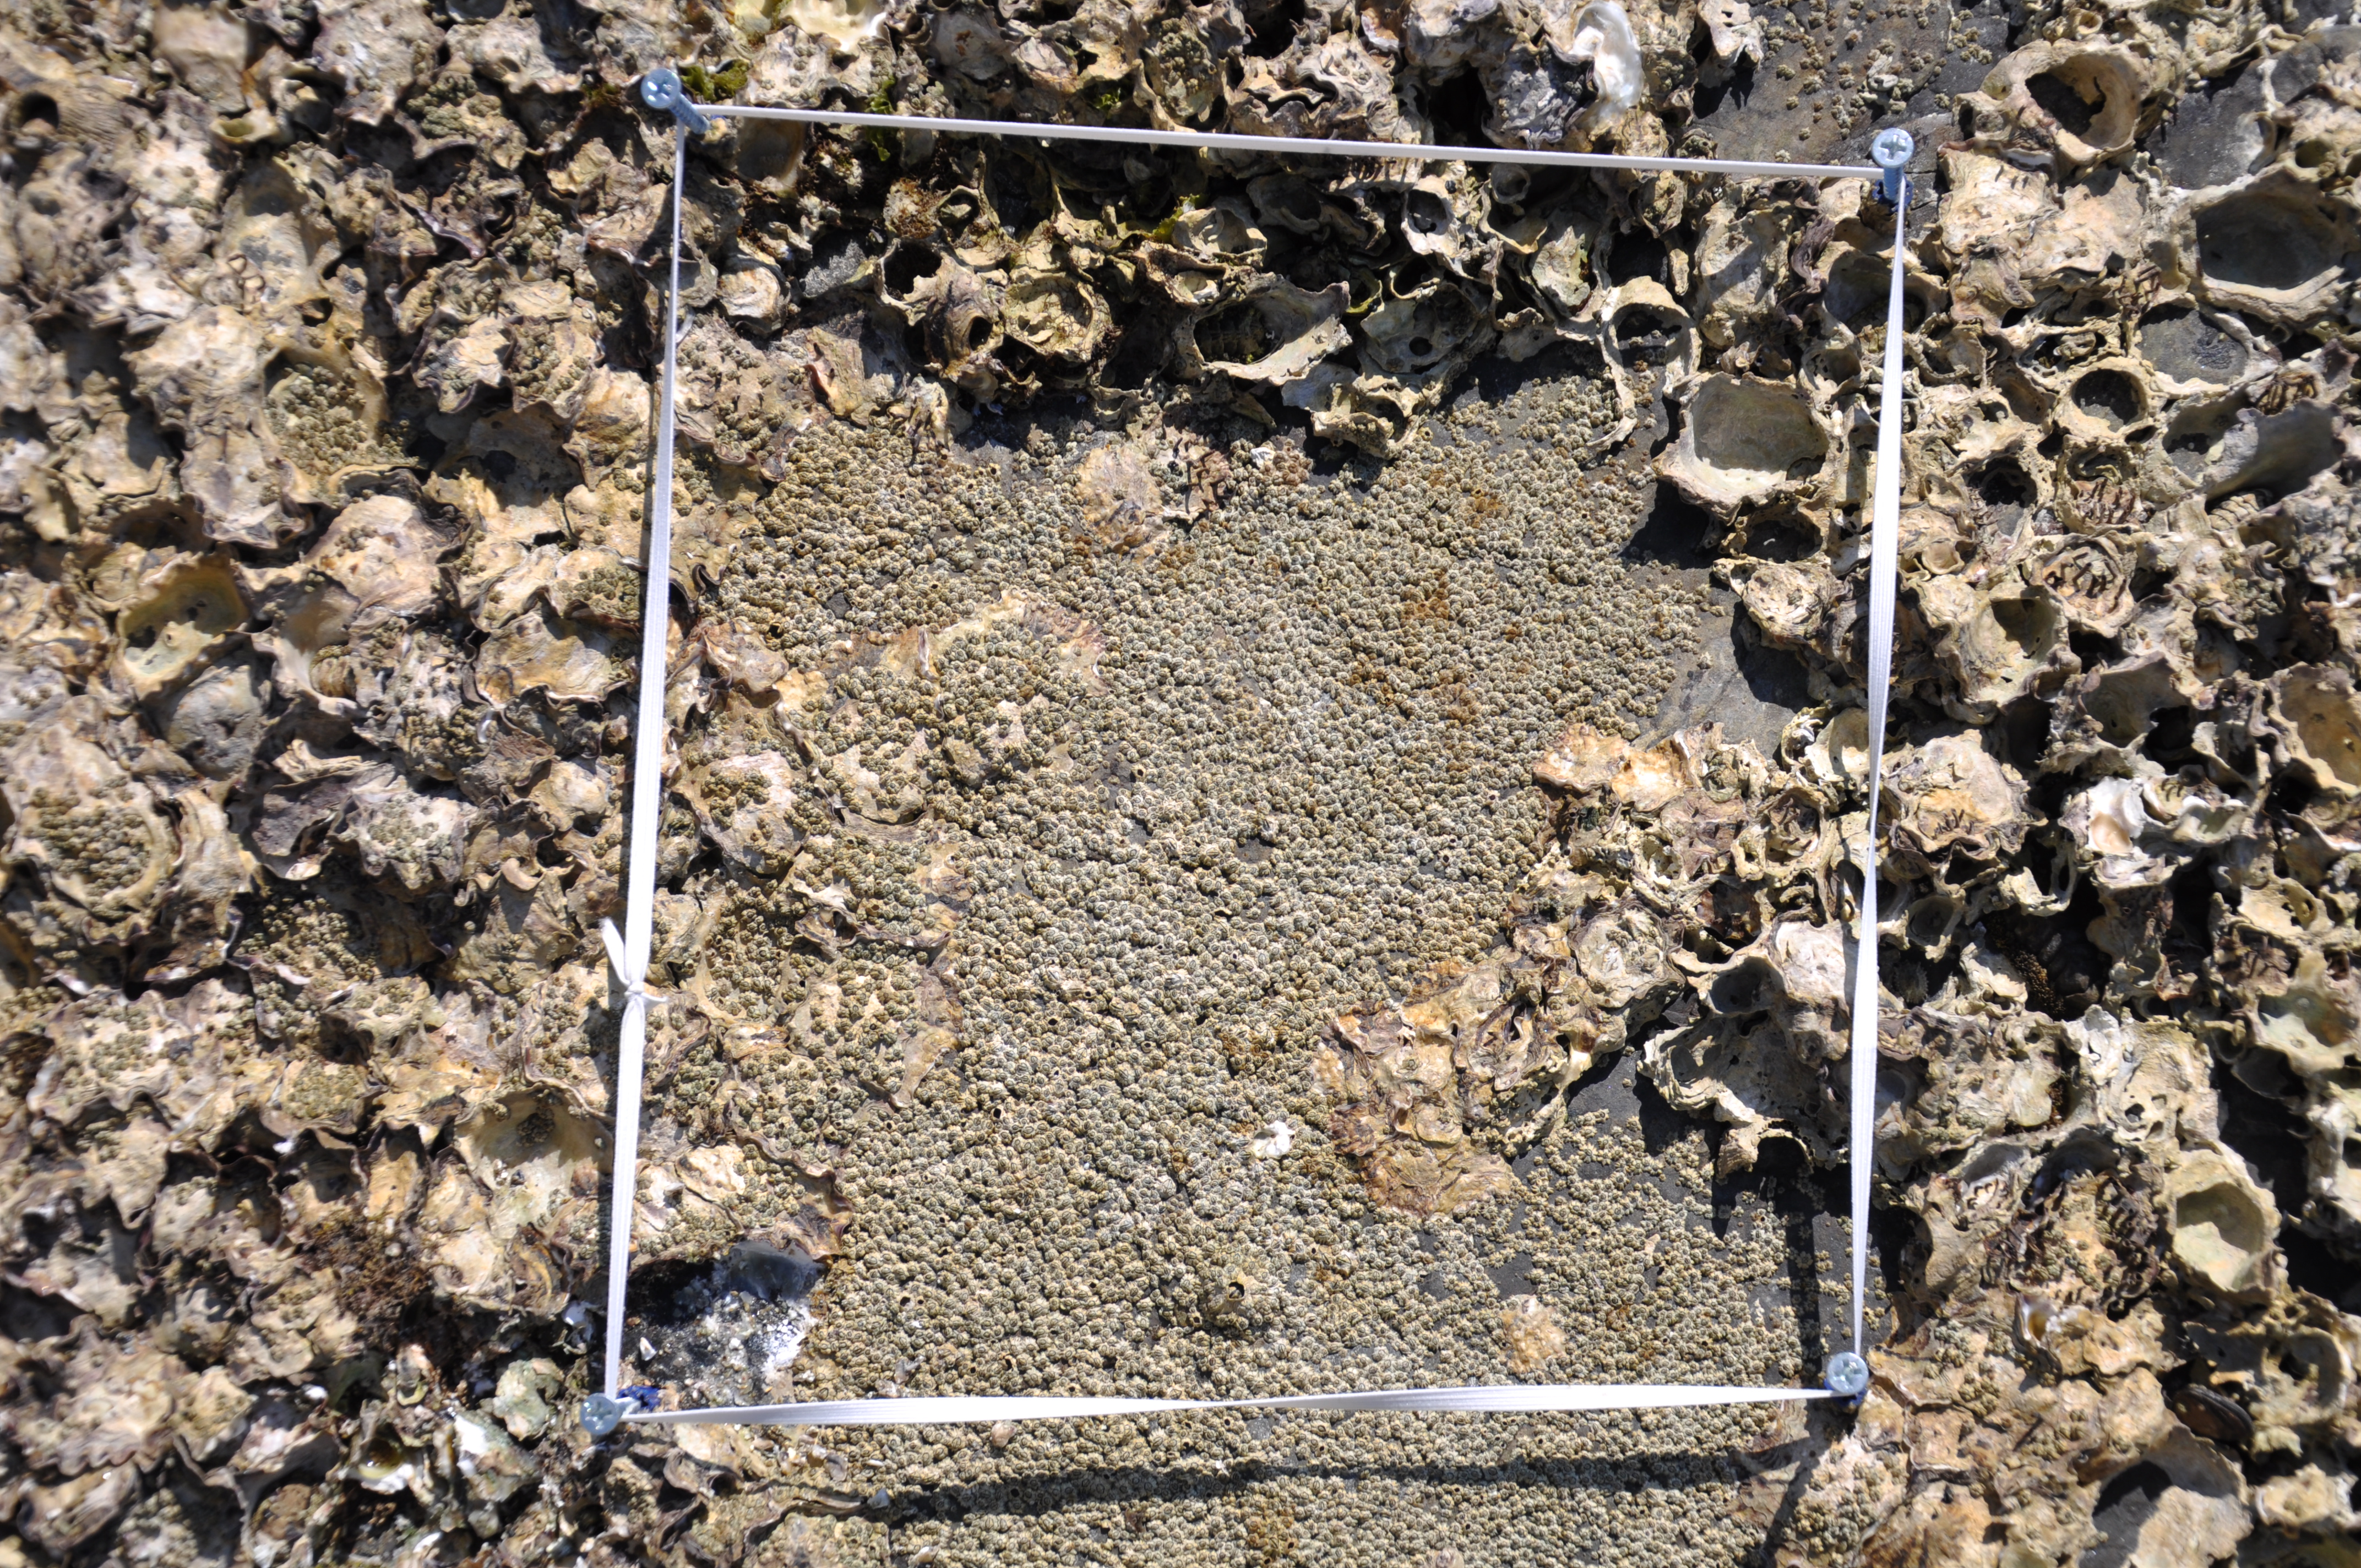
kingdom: Animalia
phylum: Arthropoda
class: Maxillopoda
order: Sessilia
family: Chthamalidae
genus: Chthamalus
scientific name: Chthamalus challengeri
